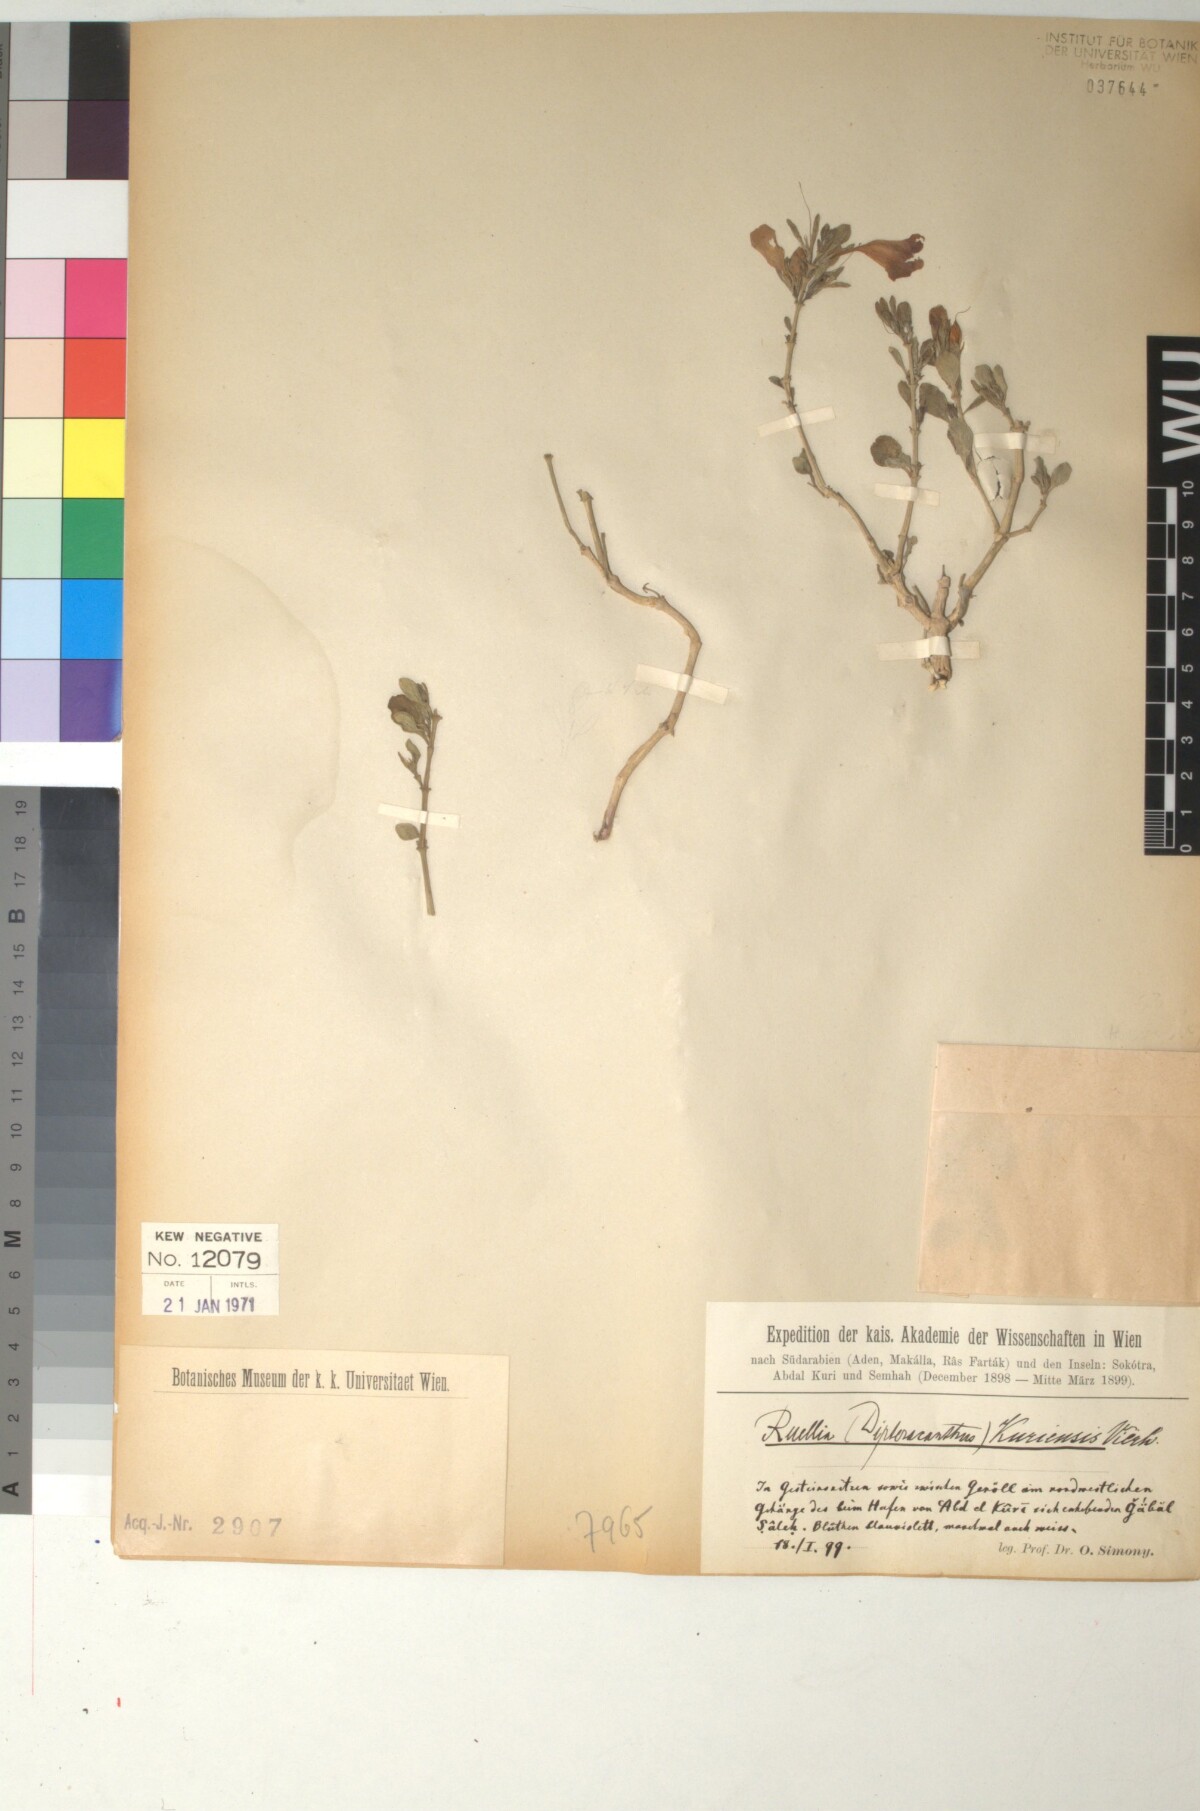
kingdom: Plantae
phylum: Tracheophyta
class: Magnoliopsida
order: Lamiales
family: Acanthaceae
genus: Ruellia
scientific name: Ruellia kuriensis
